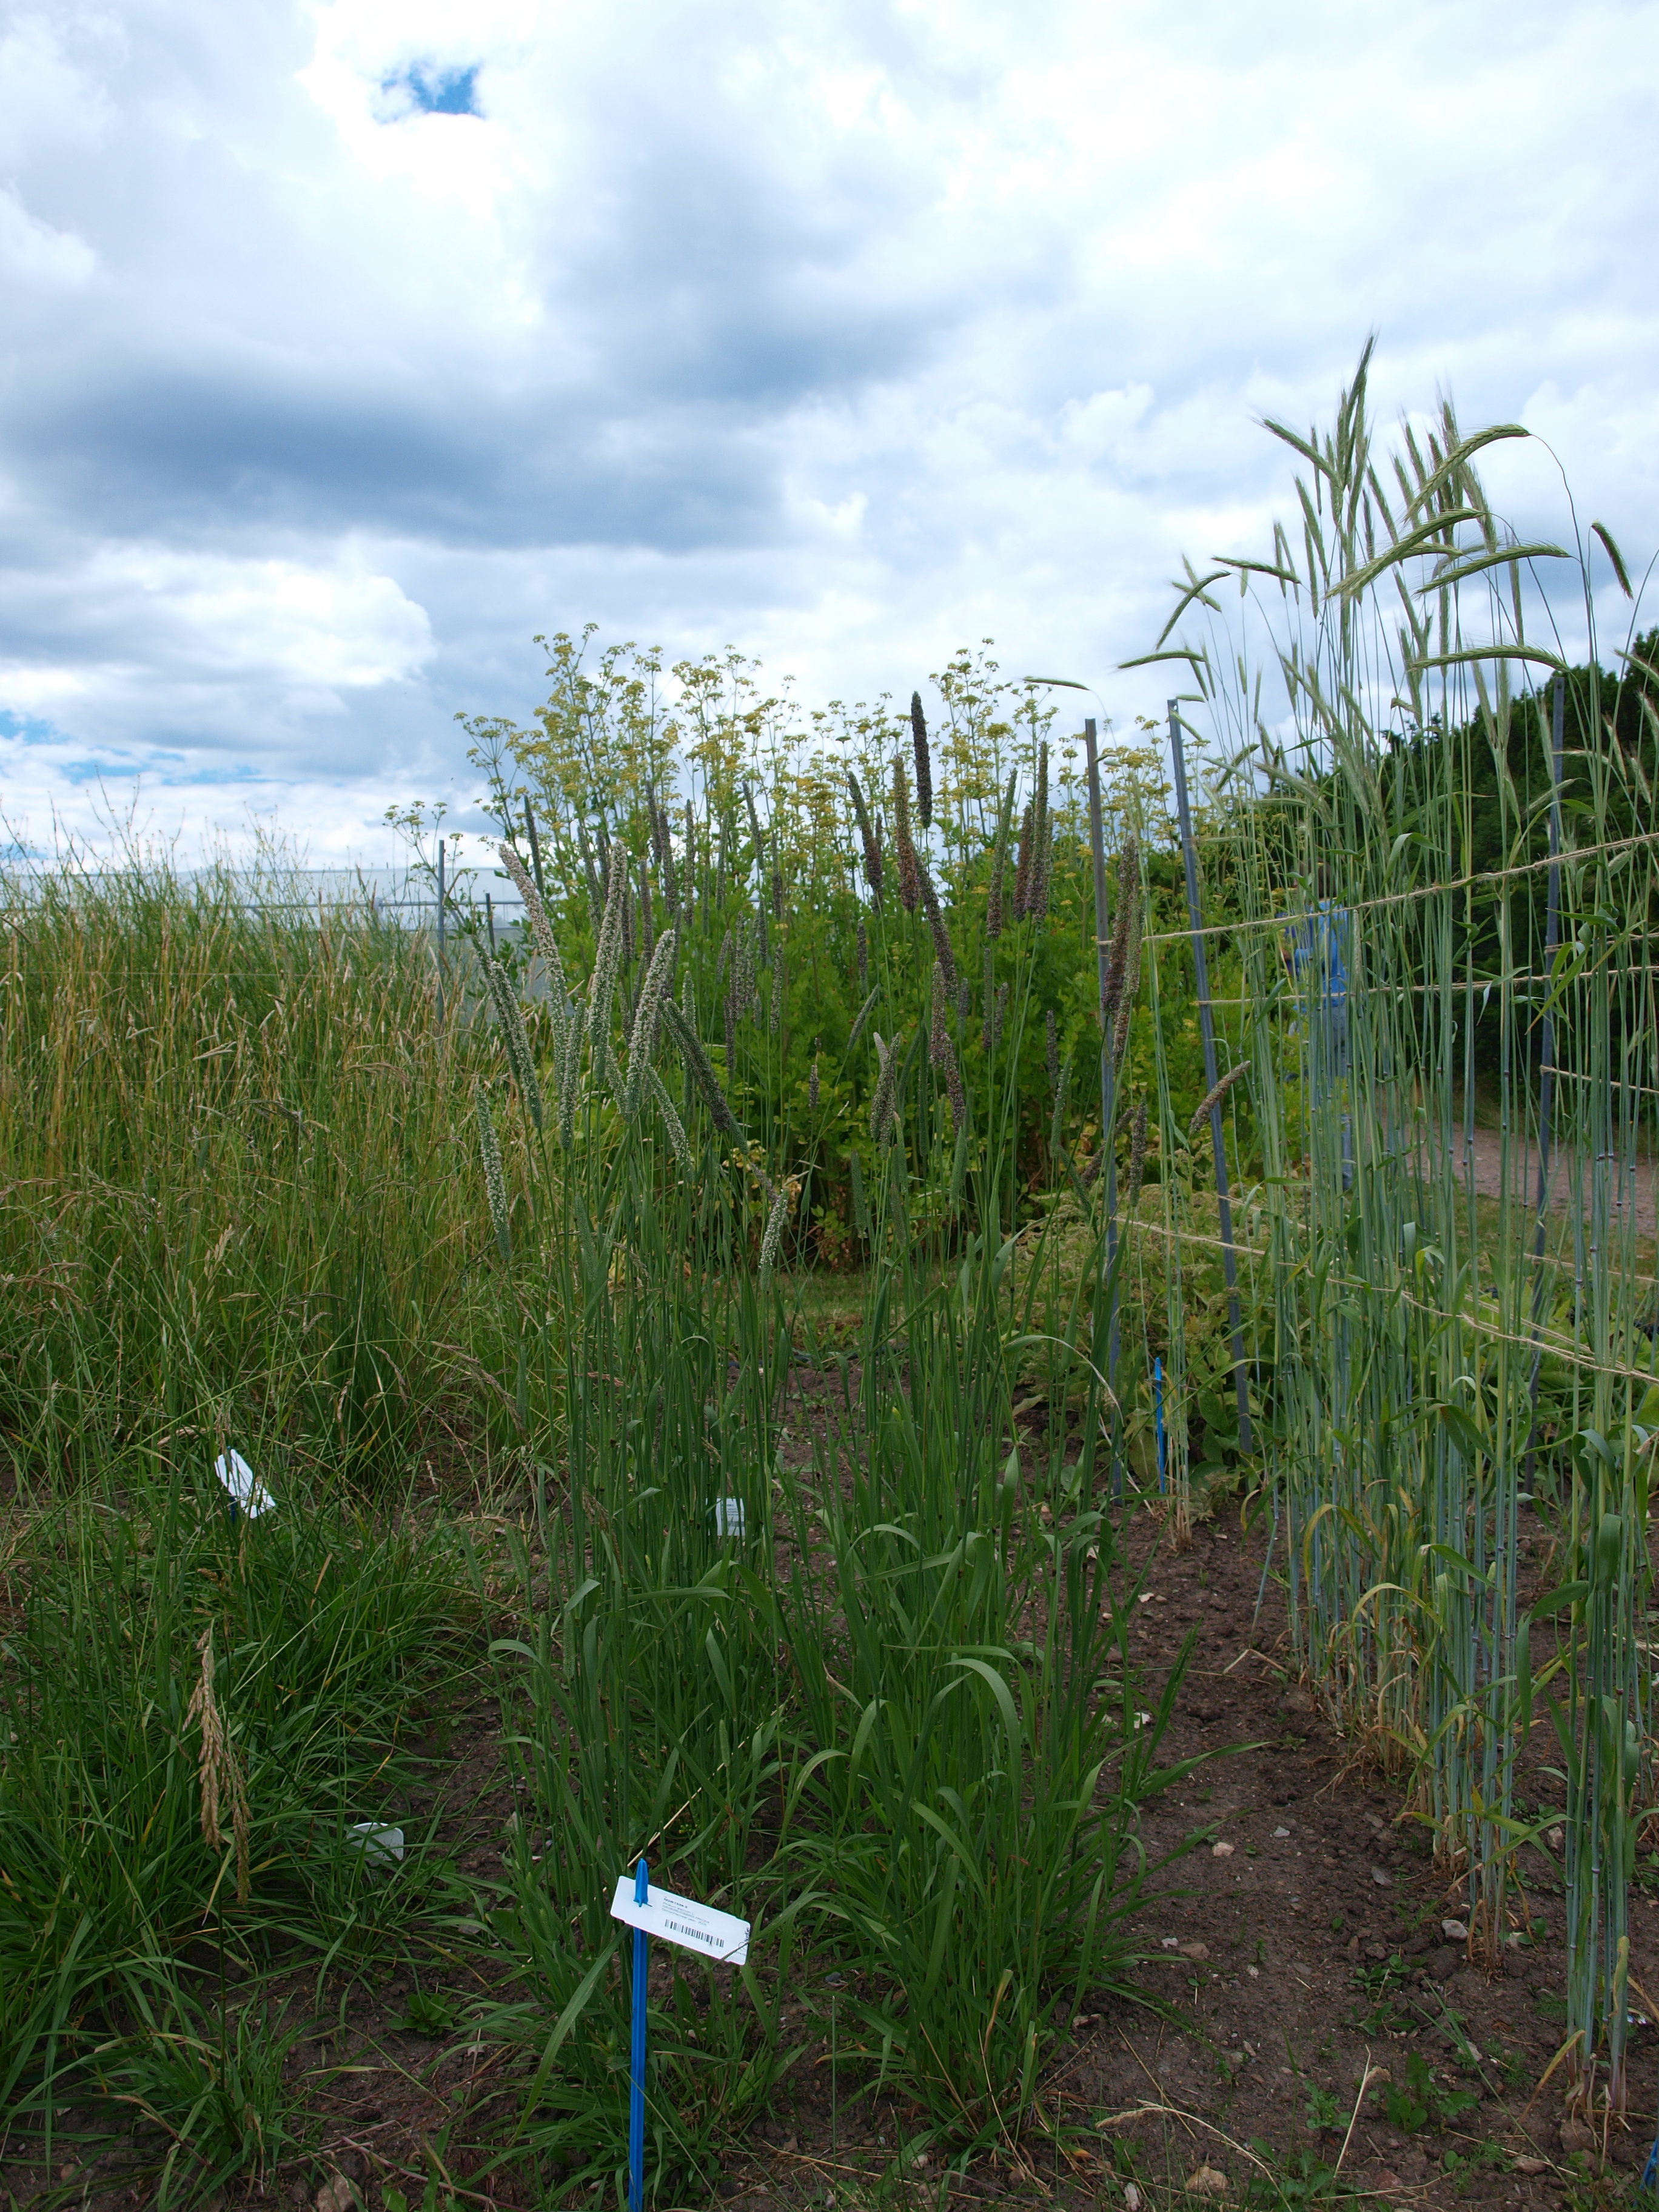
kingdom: Plantae
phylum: Tracheophyta
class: Liliopsida
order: Poales
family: Poaceae
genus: Phleum
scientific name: Phleum pratense
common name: Timothy grass
